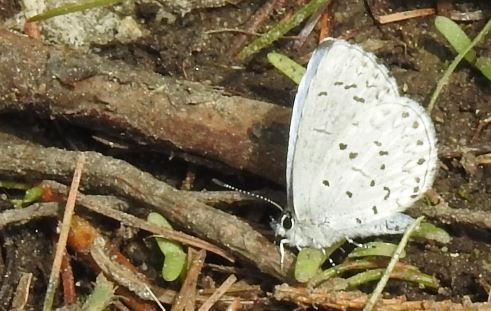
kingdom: Animalia
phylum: Arthropoda
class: Insecta
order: Lepidoptera
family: Lycaenidae
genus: Celastrina
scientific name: Celastrina lucia
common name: Northern Spring Azure
